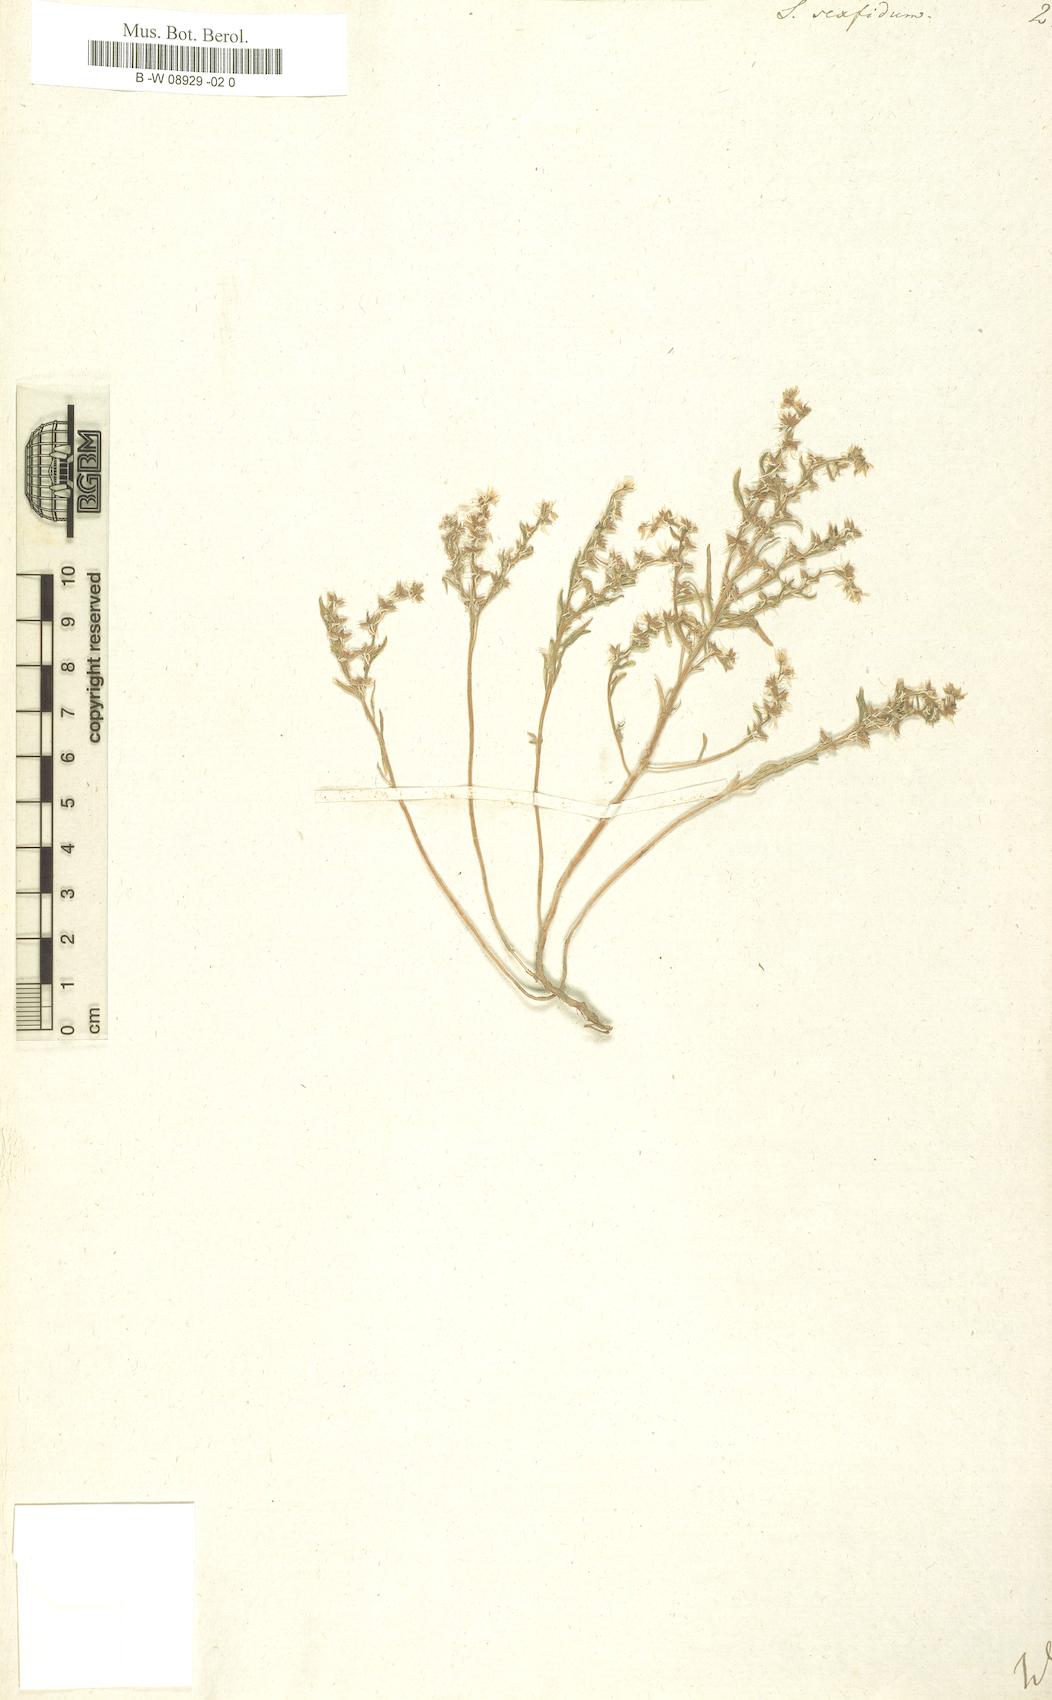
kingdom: Plantae
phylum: Tracheophyta
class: Magnoliopsida
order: Saxifragales
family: Crassulaceae
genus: Sedum
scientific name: Sedum hispanicum
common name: Spanish stonecrop
